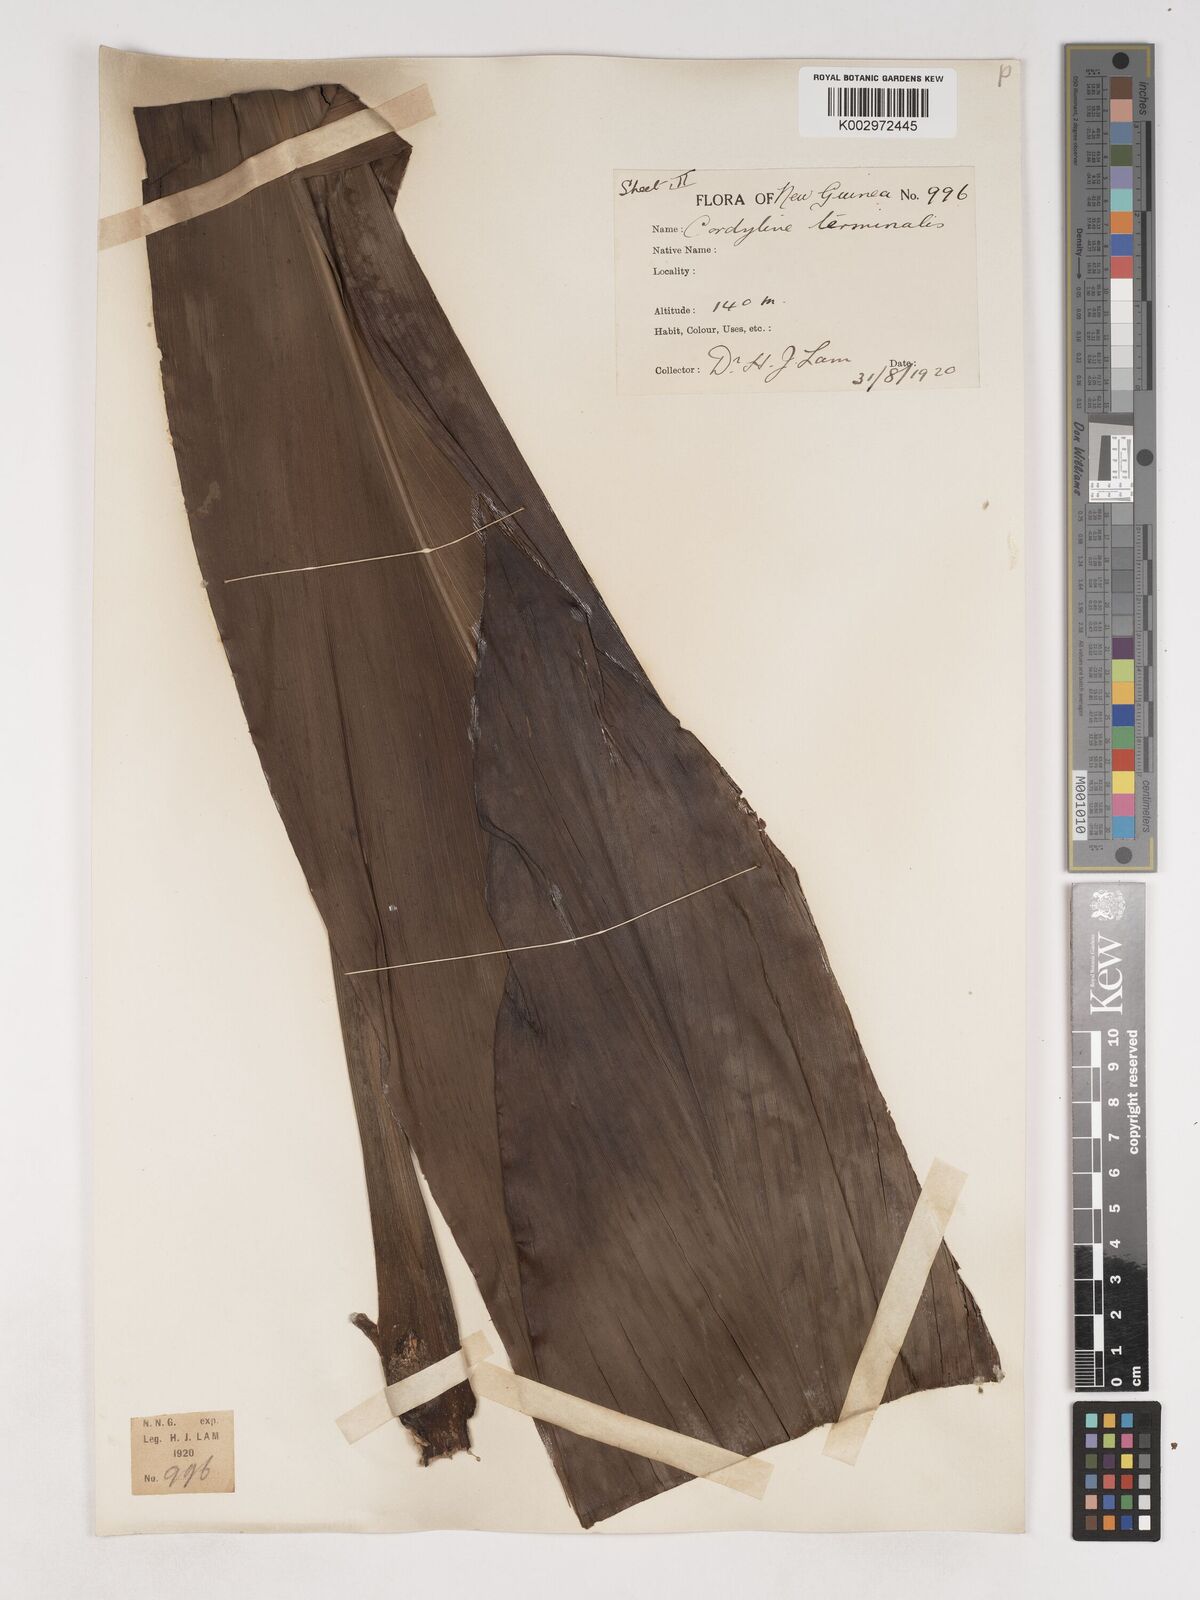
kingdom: Plantae
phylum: Tracheophyta
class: Liliopsida
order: Asparagales
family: Asparagaceae
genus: Cordyline
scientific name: Cordyline fruticosa
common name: Good-luck-plant
